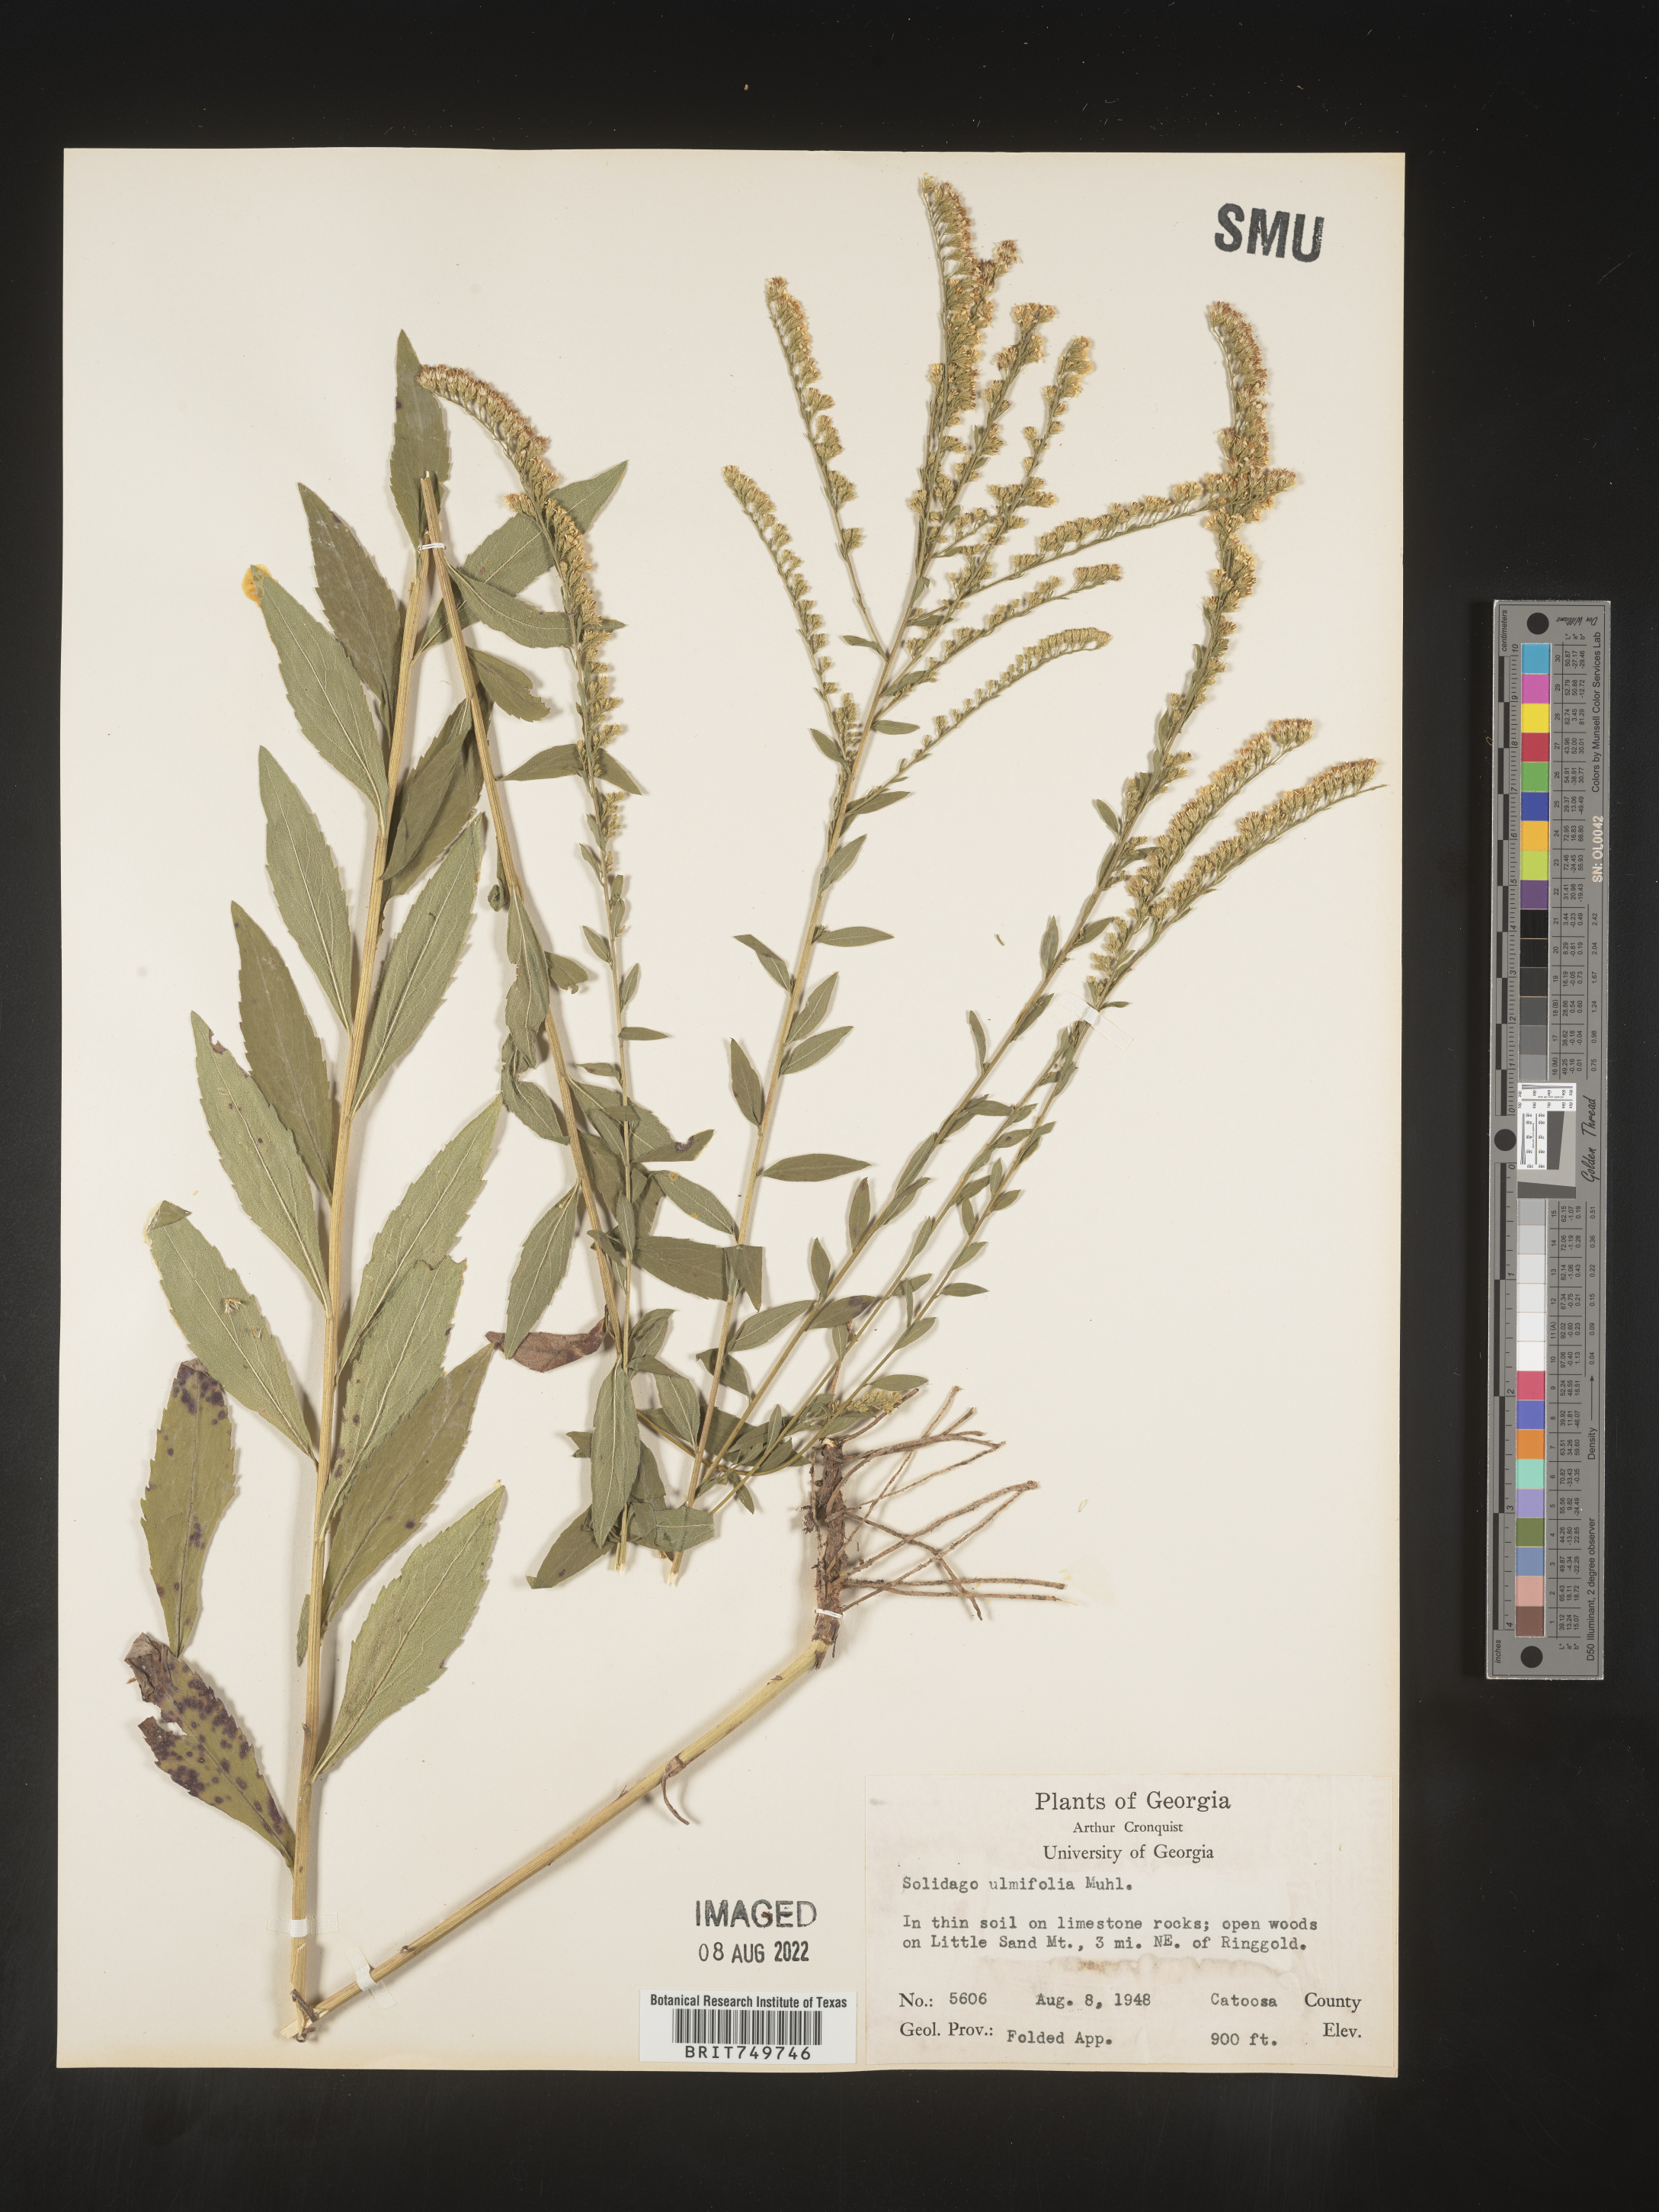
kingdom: Plantae
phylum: Tracheophyta
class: Magnoliopsida
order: Asterales
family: Asteraceae
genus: Solidago
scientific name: Solidago ulmifolia
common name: Elm-leaf goldenrod
